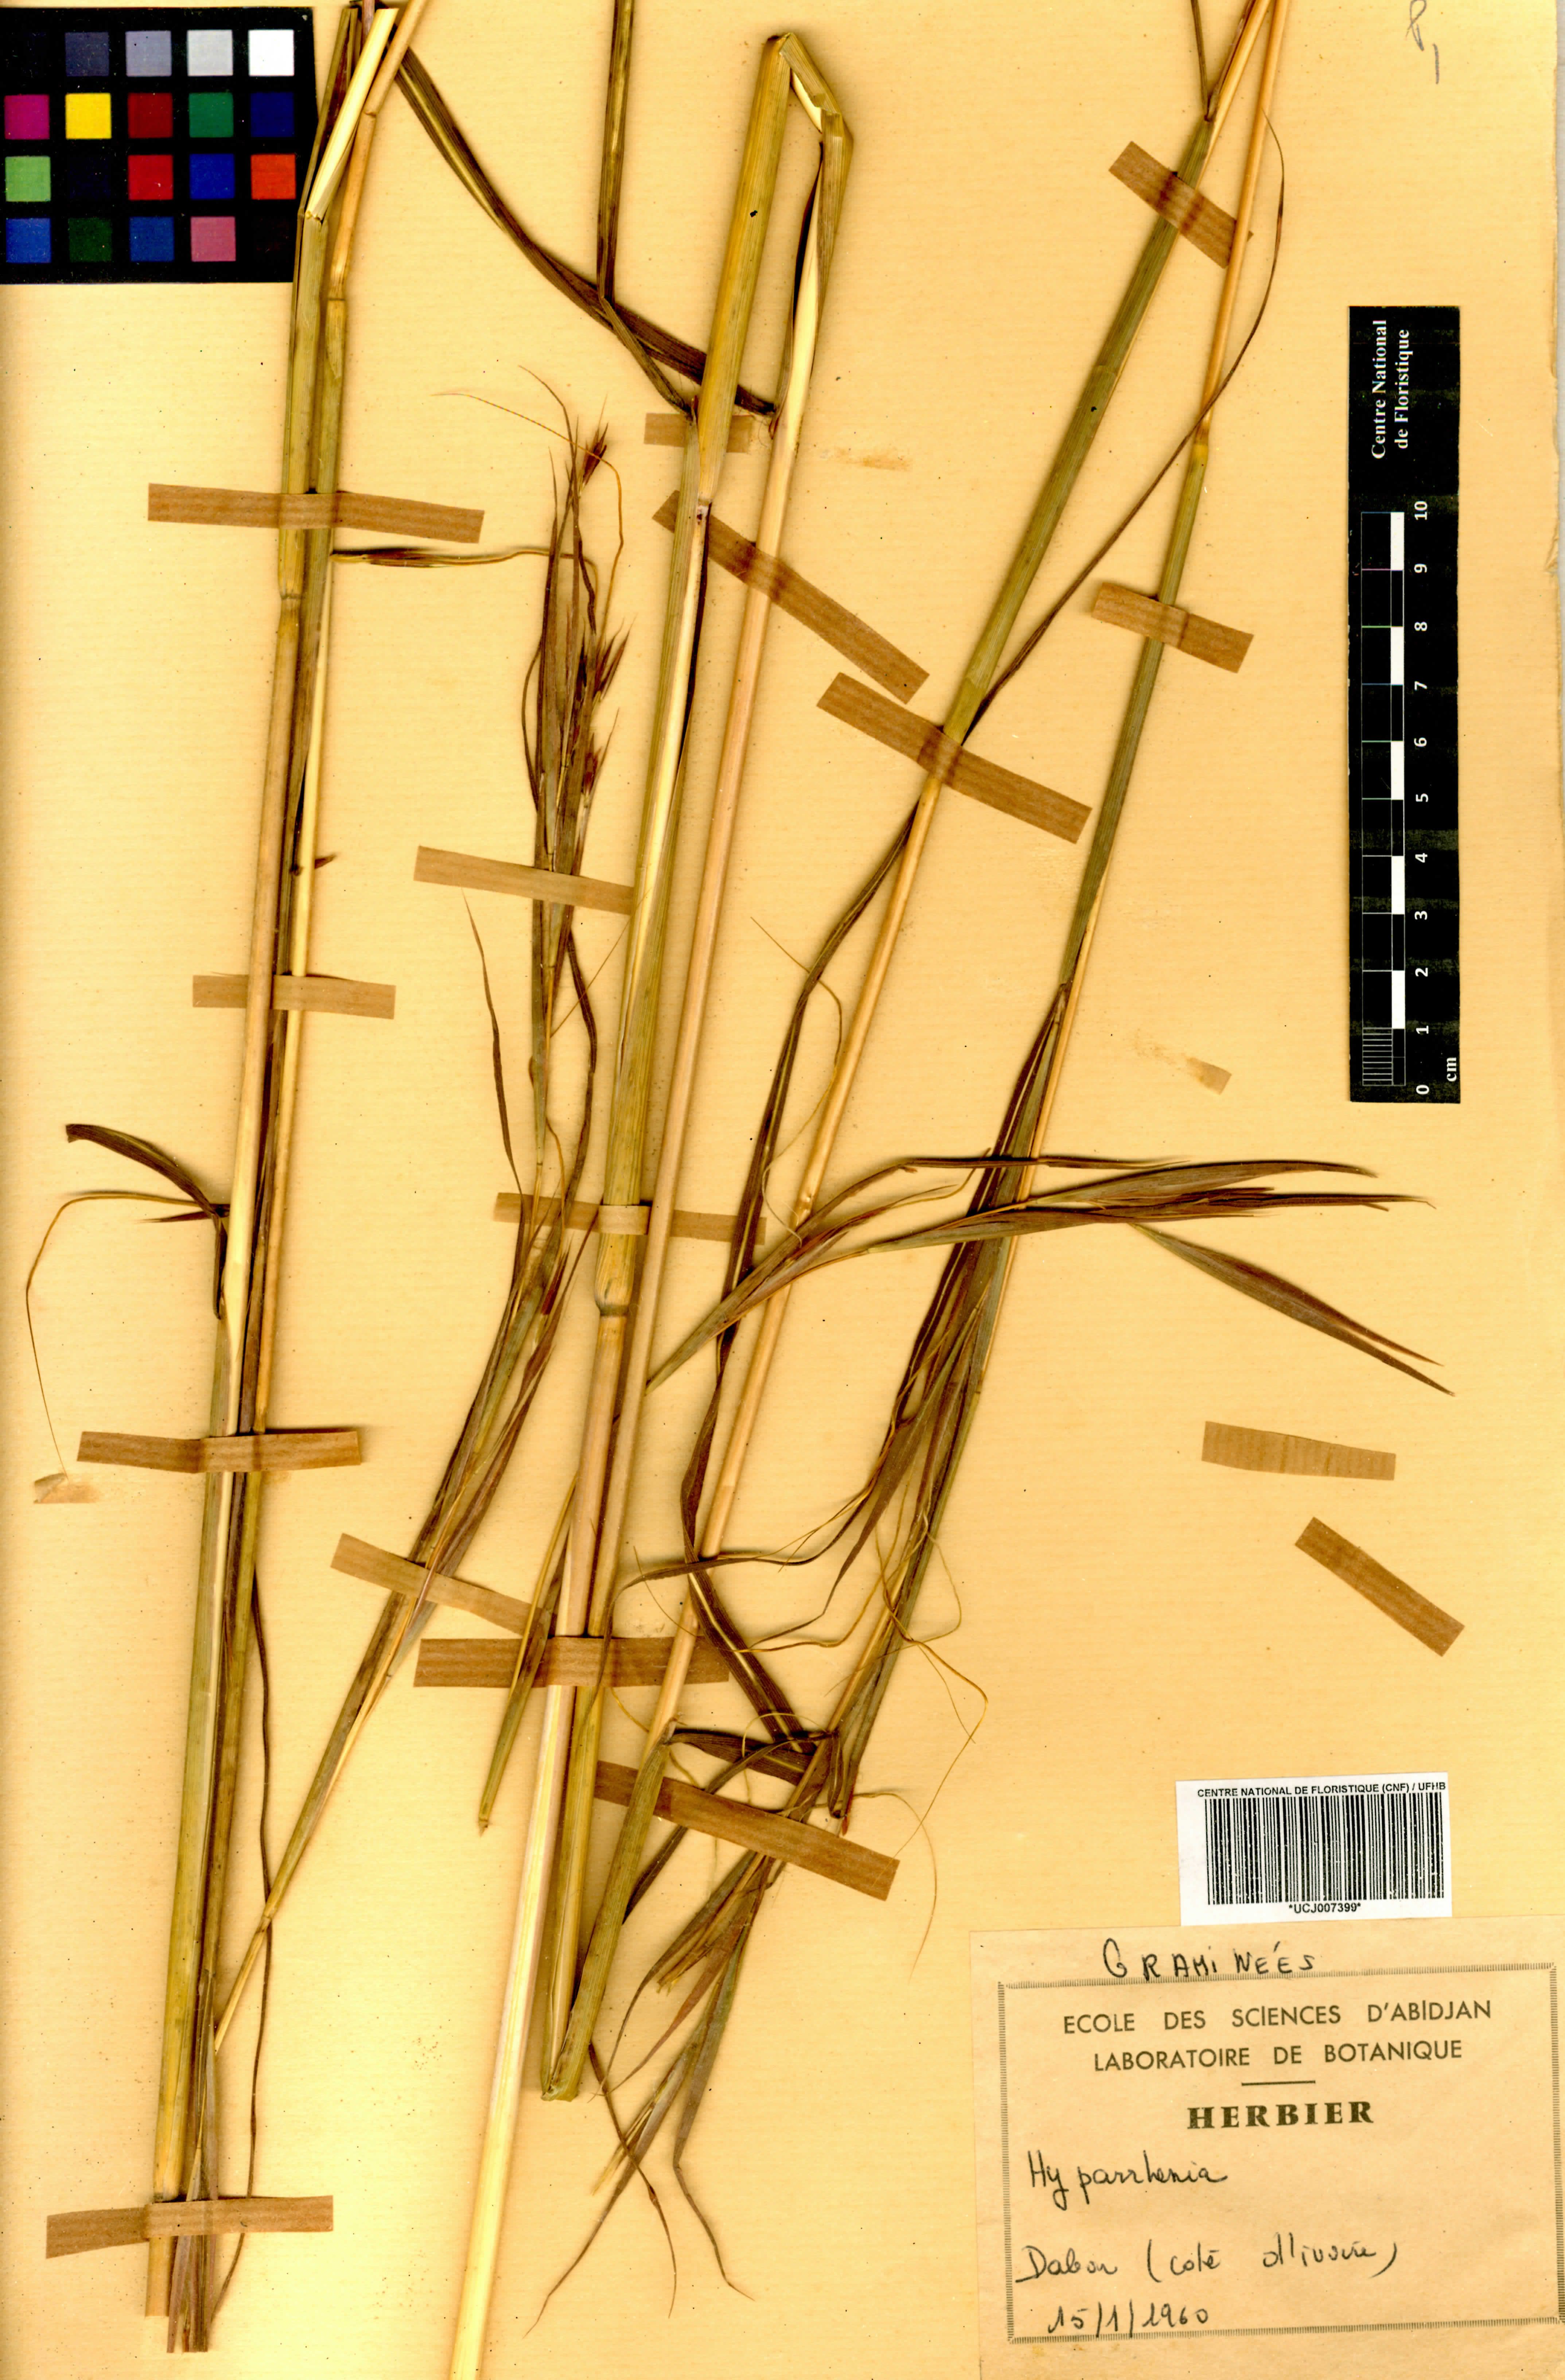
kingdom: Plantae
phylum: Tracheophyta
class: Liliopsida
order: Poales
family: Poaceae
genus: Hyparrhenia
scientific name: Hyparrhenia
